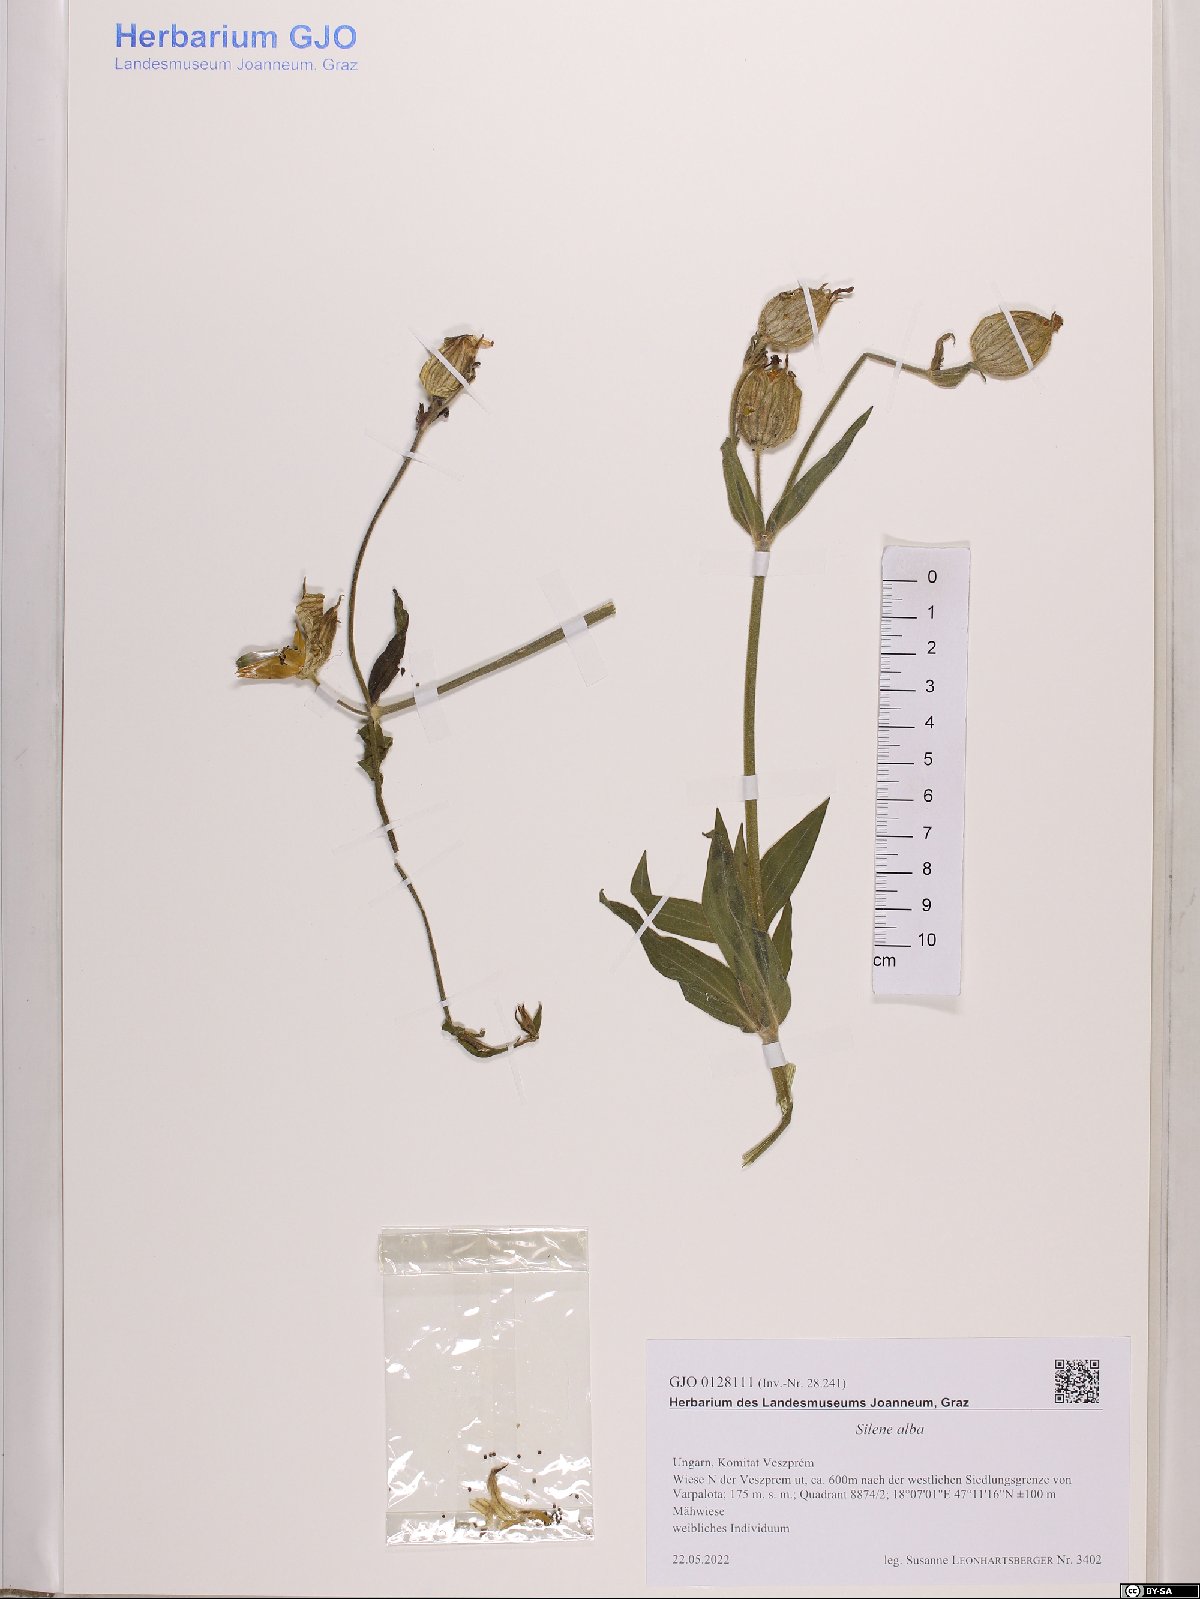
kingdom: Plantae
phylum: Tracheophyta
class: Magnoliopsida
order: Caryophyllales
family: Caryophyllaceae
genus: Silene
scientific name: Silene latifolia
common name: White campion
